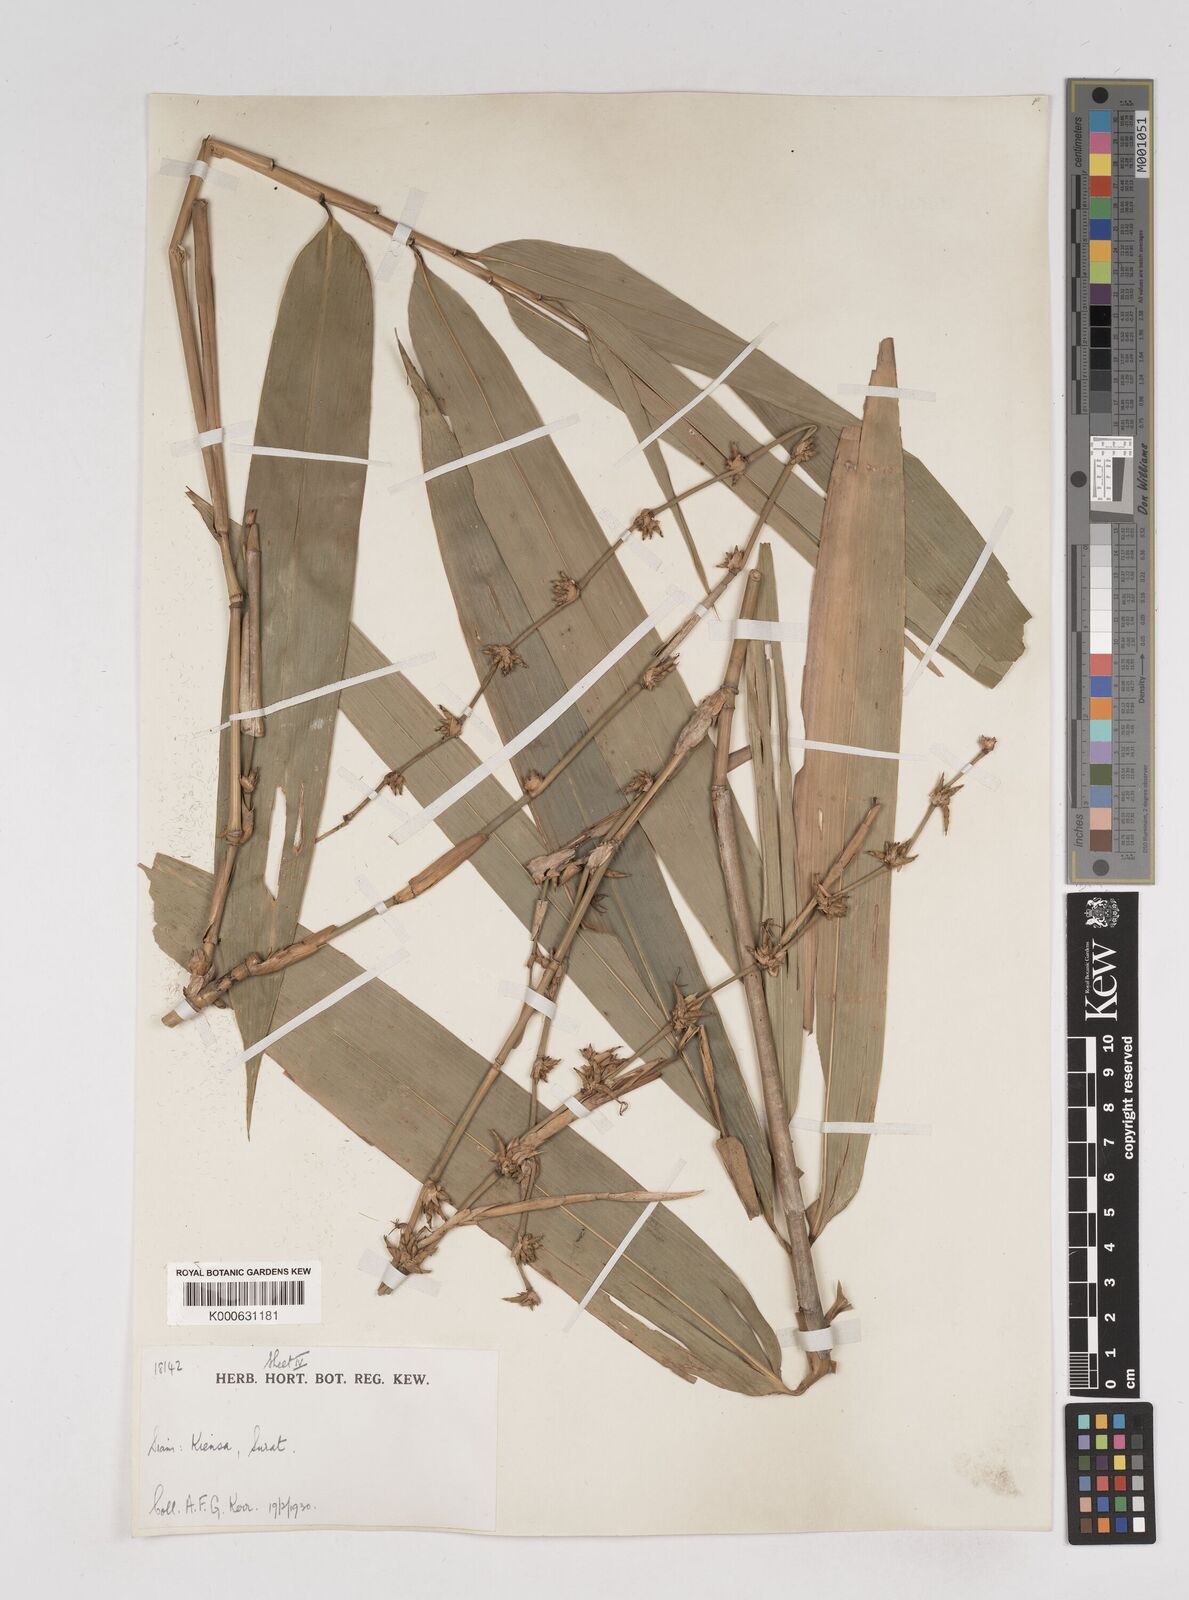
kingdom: Plantae
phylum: Tracheophyta
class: Liliopsida
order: Poales
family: Poaceae
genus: Gigantochloa
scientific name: Gigantochloa
